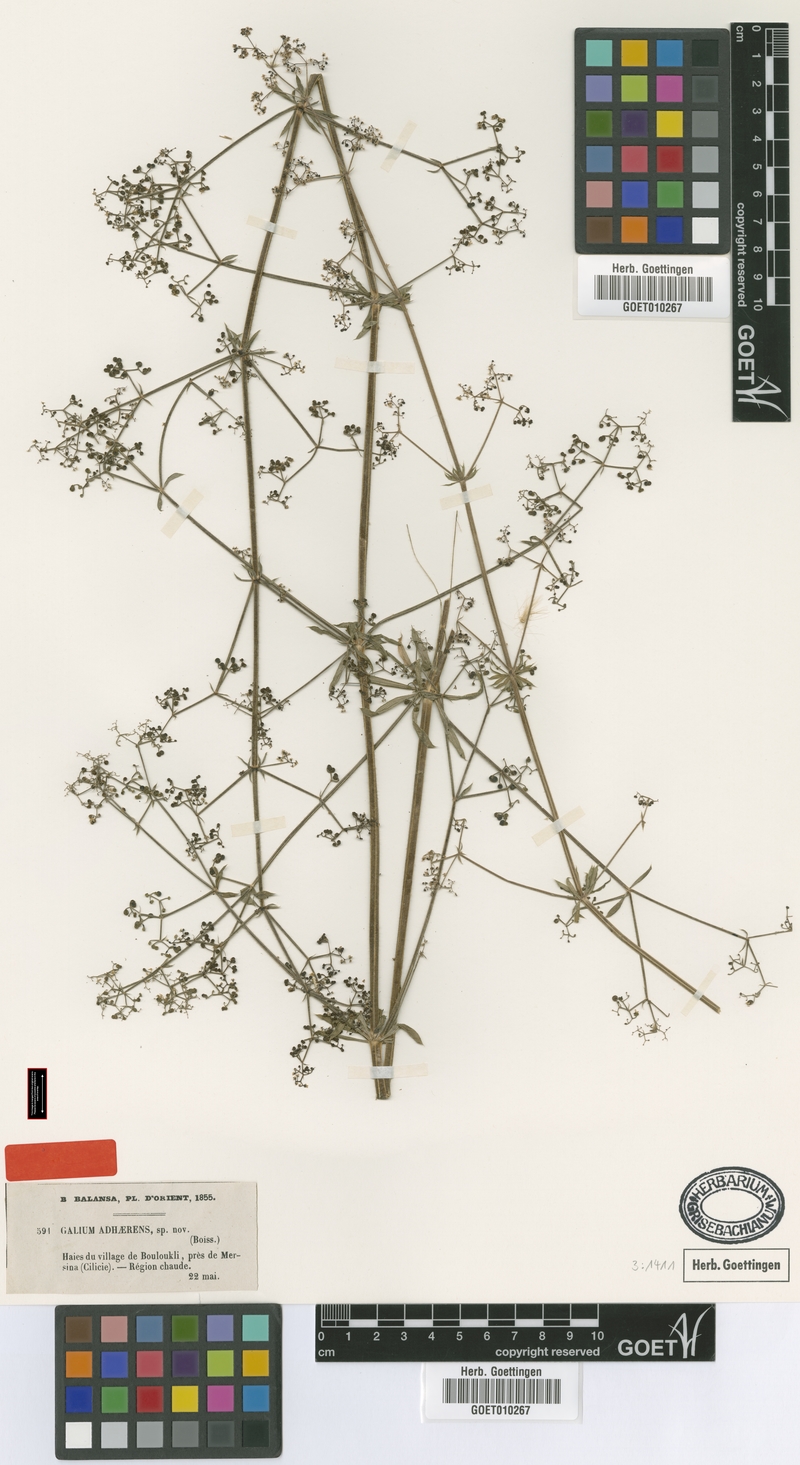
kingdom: Plantae
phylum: Tracheophyta
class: Magnoliopsida
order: Gentianales
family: Rubiaceae
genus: Galium
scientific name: Galium adhaerens
